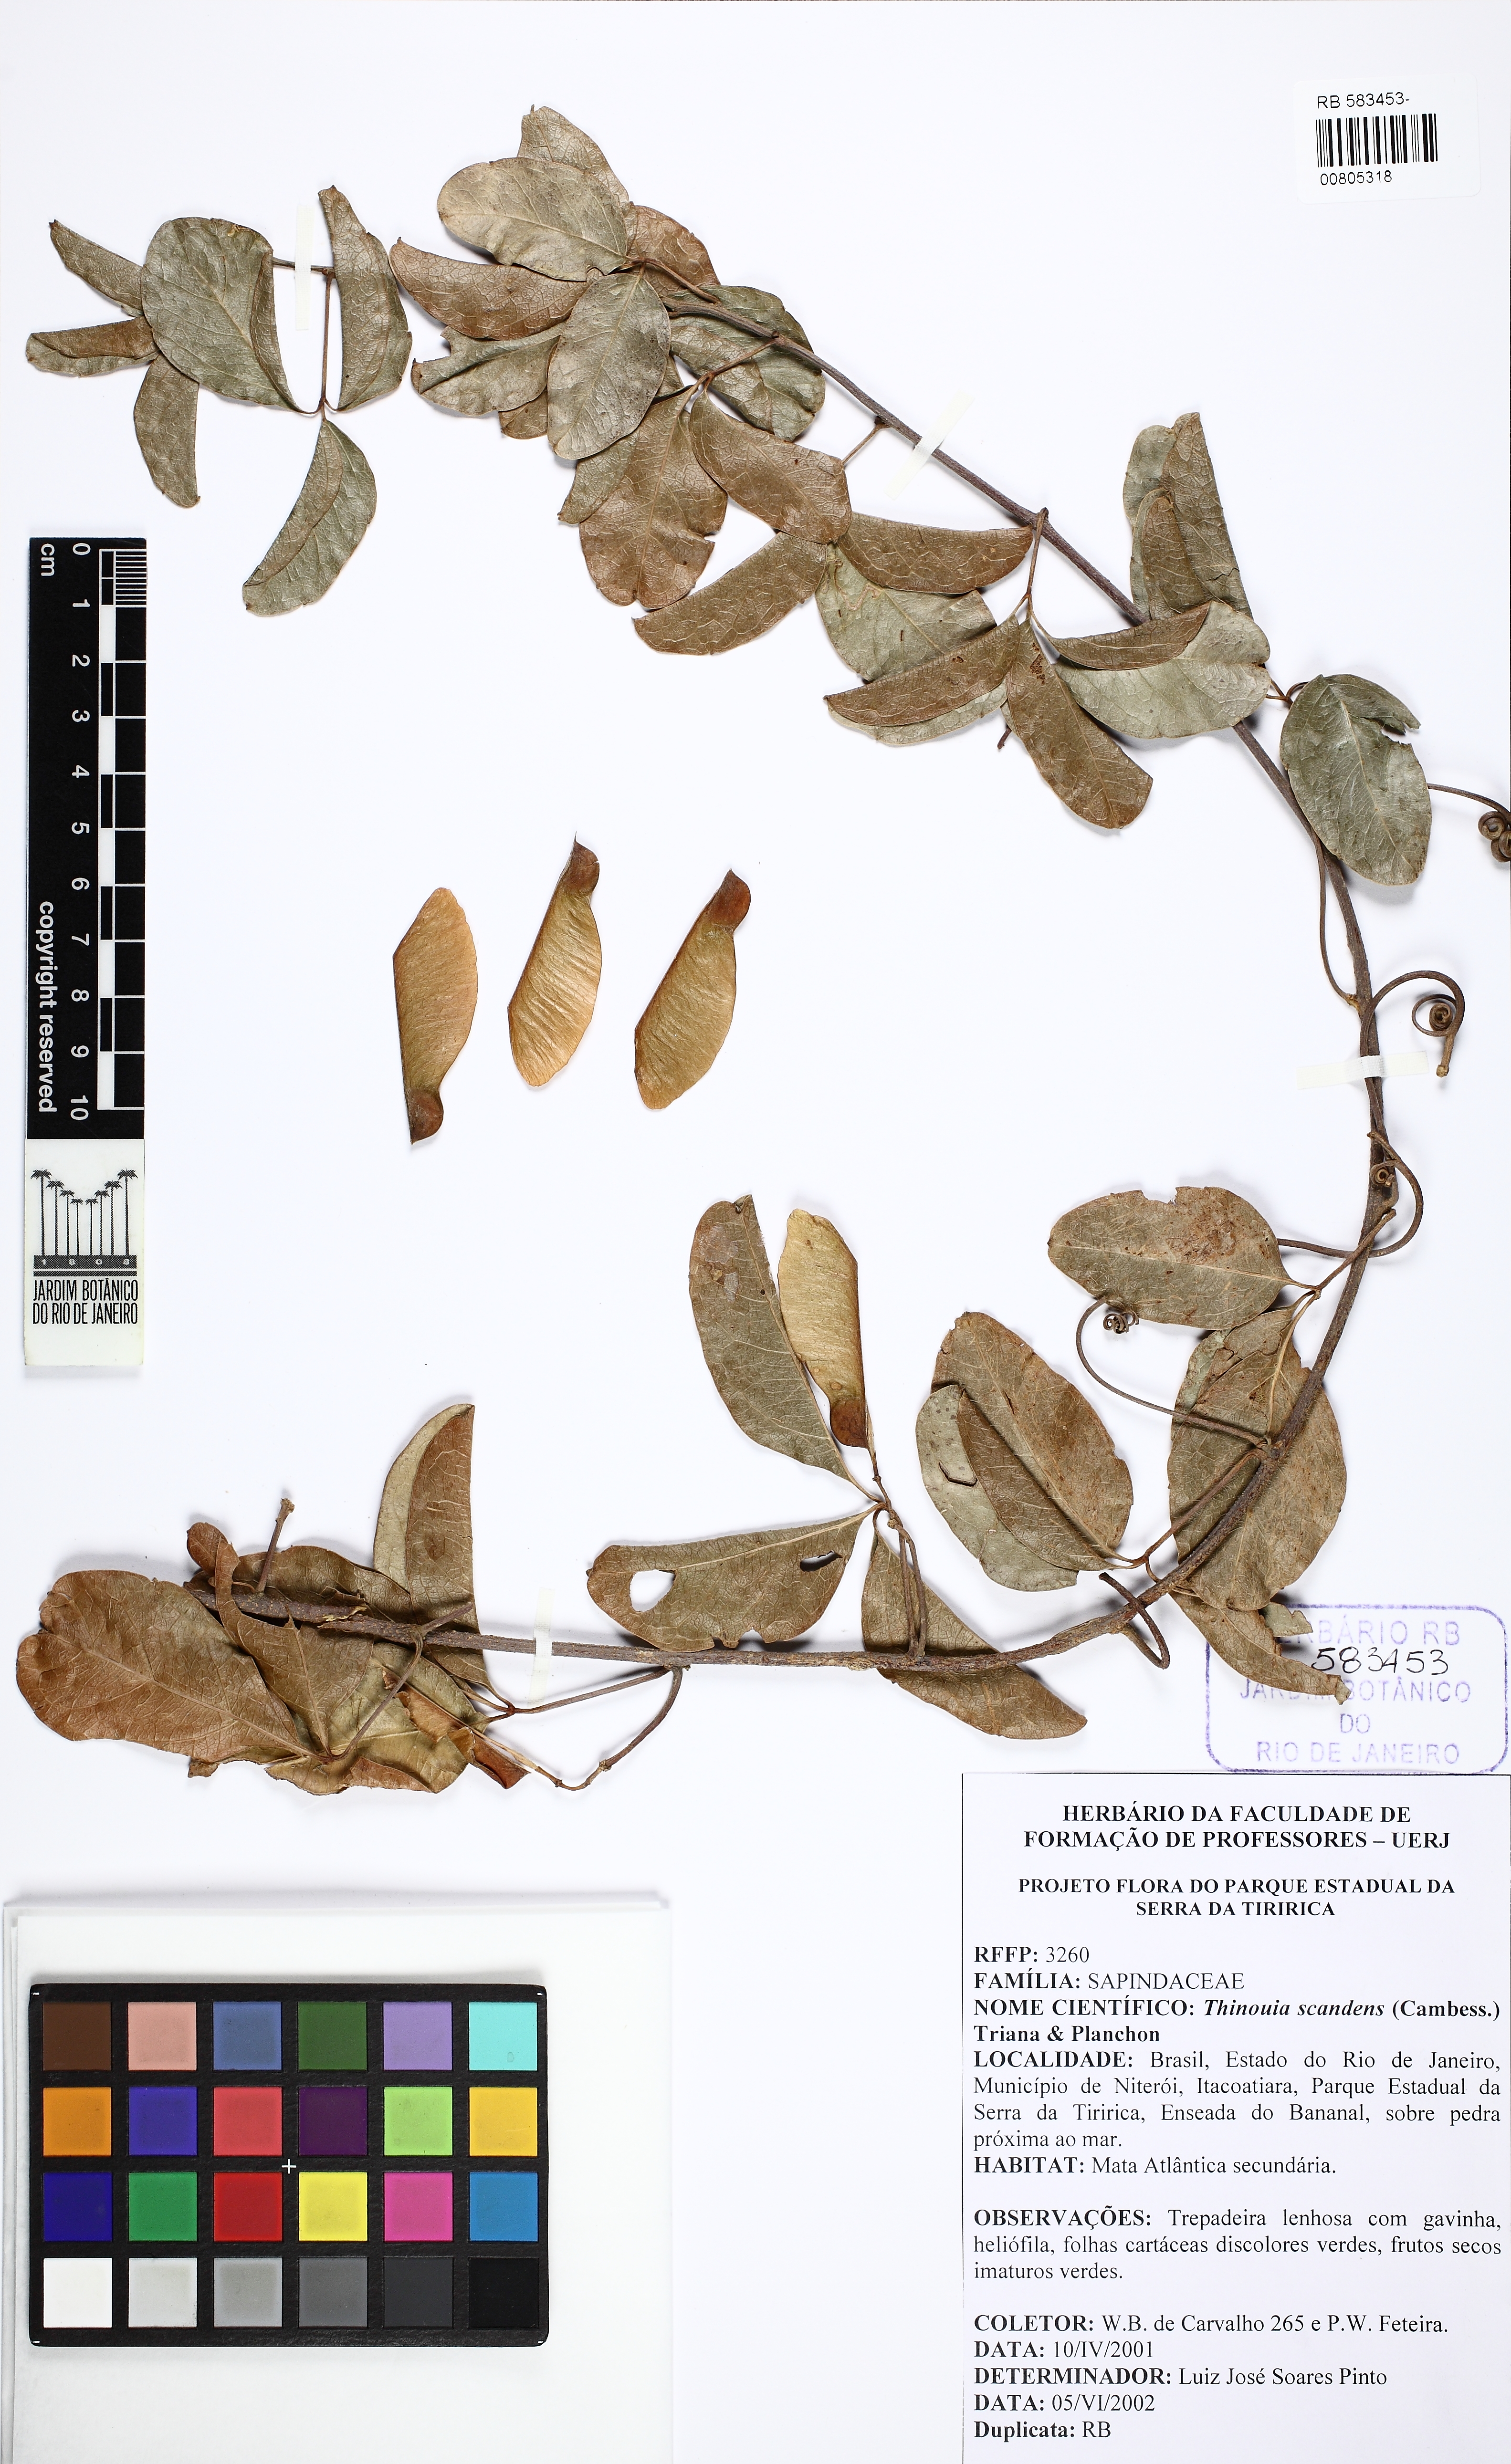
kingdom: Plantae
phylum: Tracheophyta
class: Magnoliopsida
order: Sapindales
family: Sapindaceae
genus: Thinouia
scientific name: Thinouia scandens
